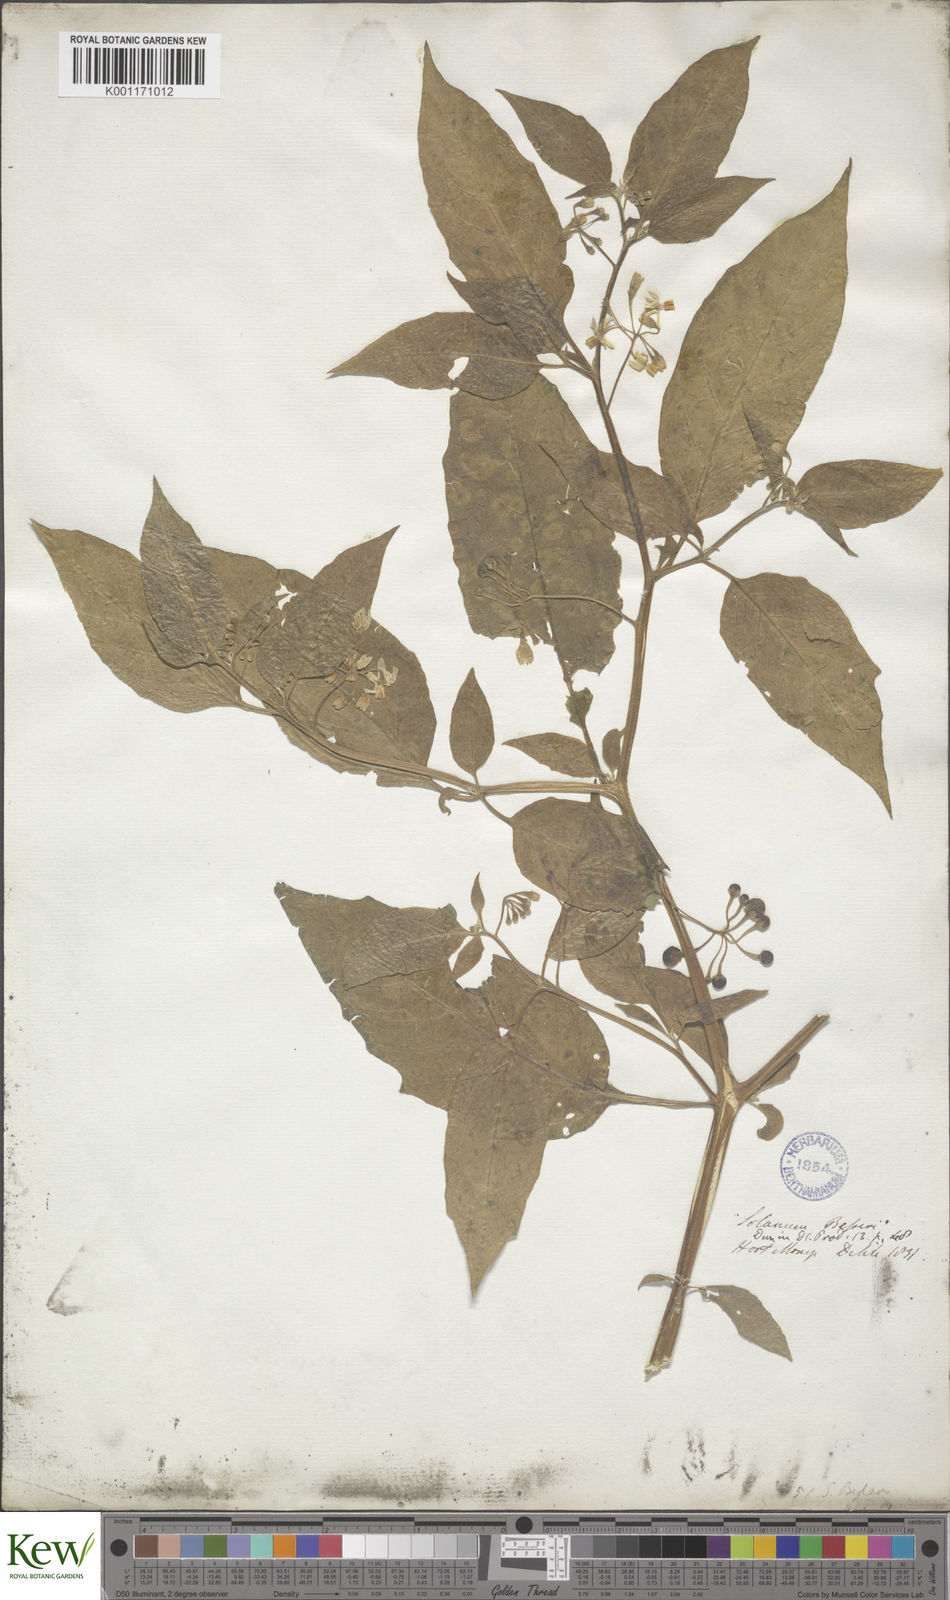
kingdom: Plantae
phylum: Tracheophyta
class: Magnoliopsida
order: Solanales
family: Solanaceae
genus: Solanum
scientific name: Solanum
